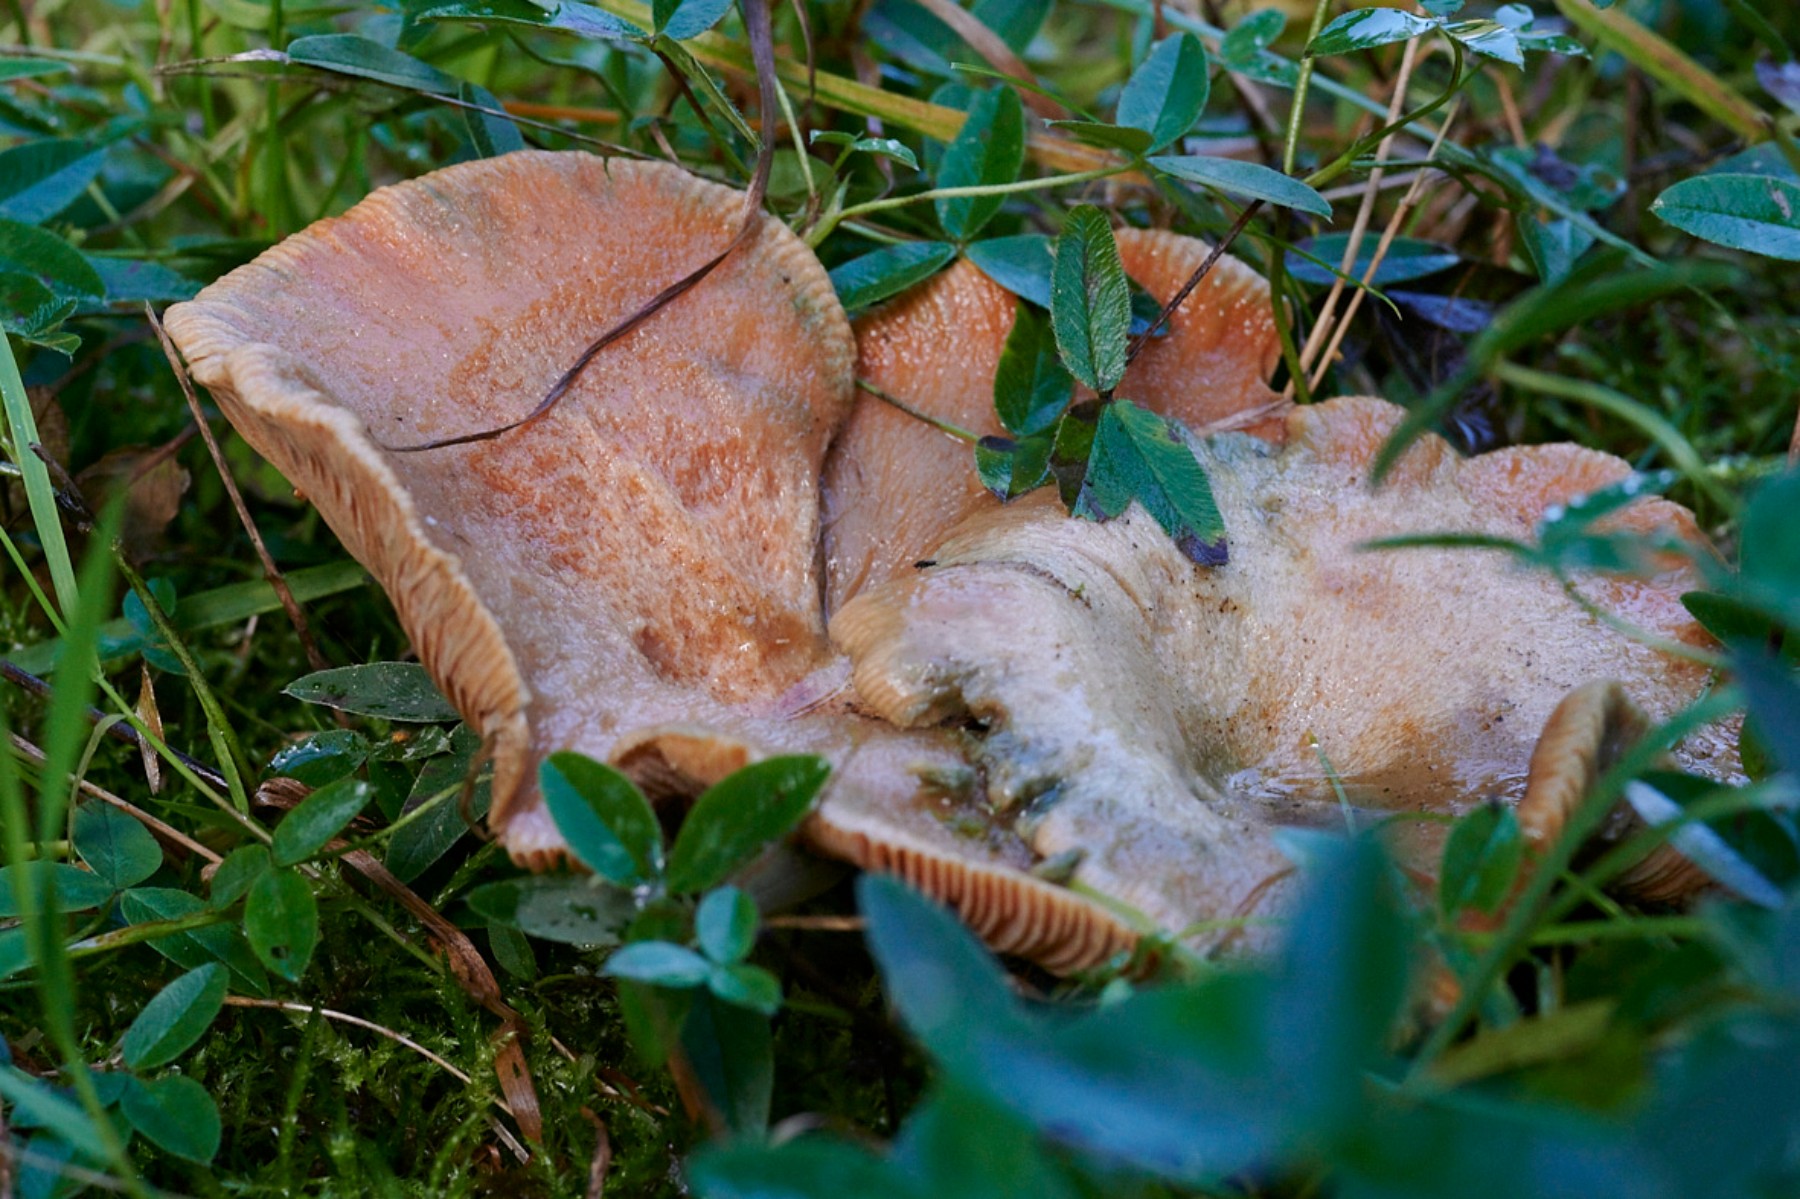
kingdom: Fungi
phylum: Basidiomycota
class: Agaricomycetes
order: Russulales
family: Russulaceae
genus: Lactarius
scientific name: Lactarius deterrimus
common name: gran-mælkehat
